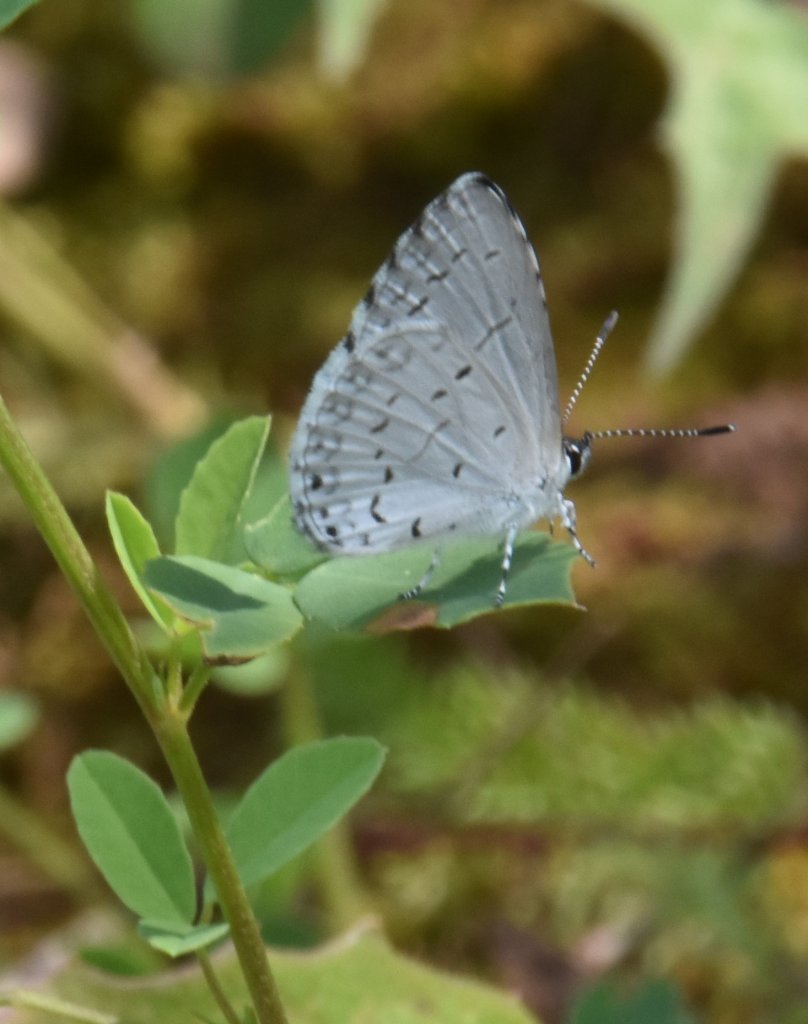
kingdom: Animalia
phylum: Arthropoda
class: Insecta
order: Lepidoptera
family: Lycaenidae
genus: Cyaniris
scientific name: Cyaniris neglecta
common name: Summer Azure
